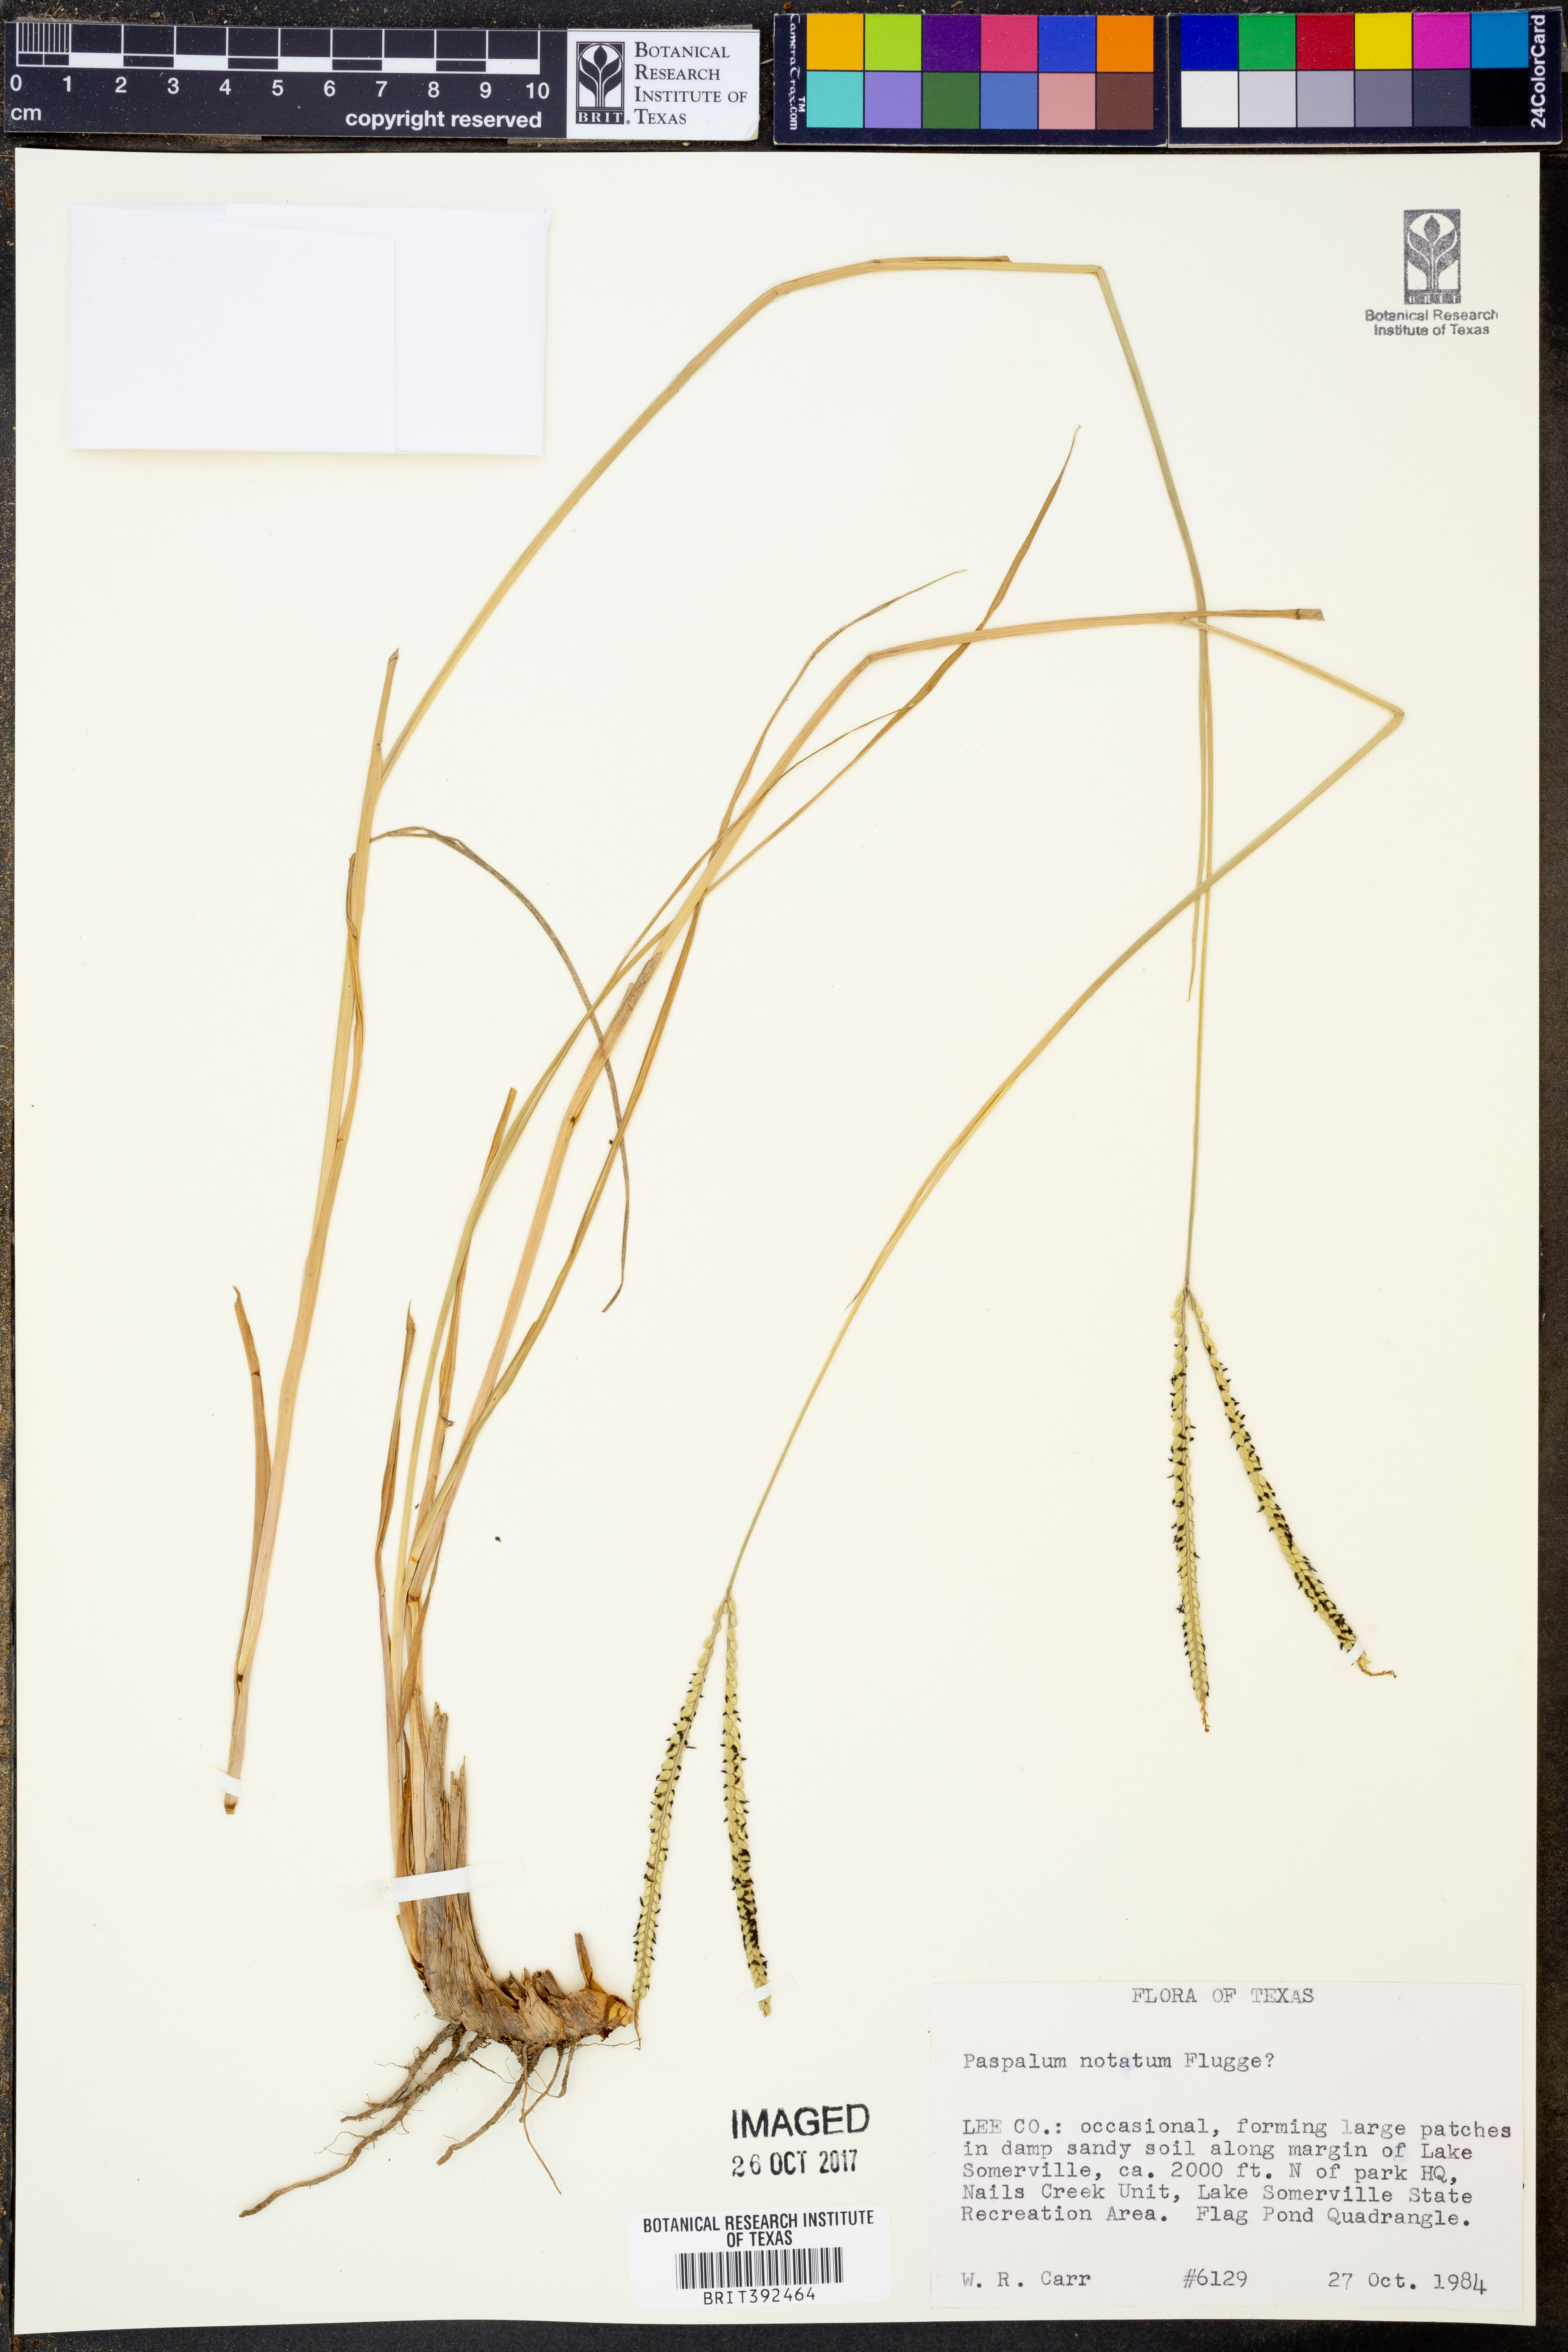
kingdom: Plantae
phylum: Tracheophyta
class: Liliopsida
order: Poales
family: Poaceae
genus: Paspalum
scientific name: Paspalum notatum
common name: Bahiagrass
